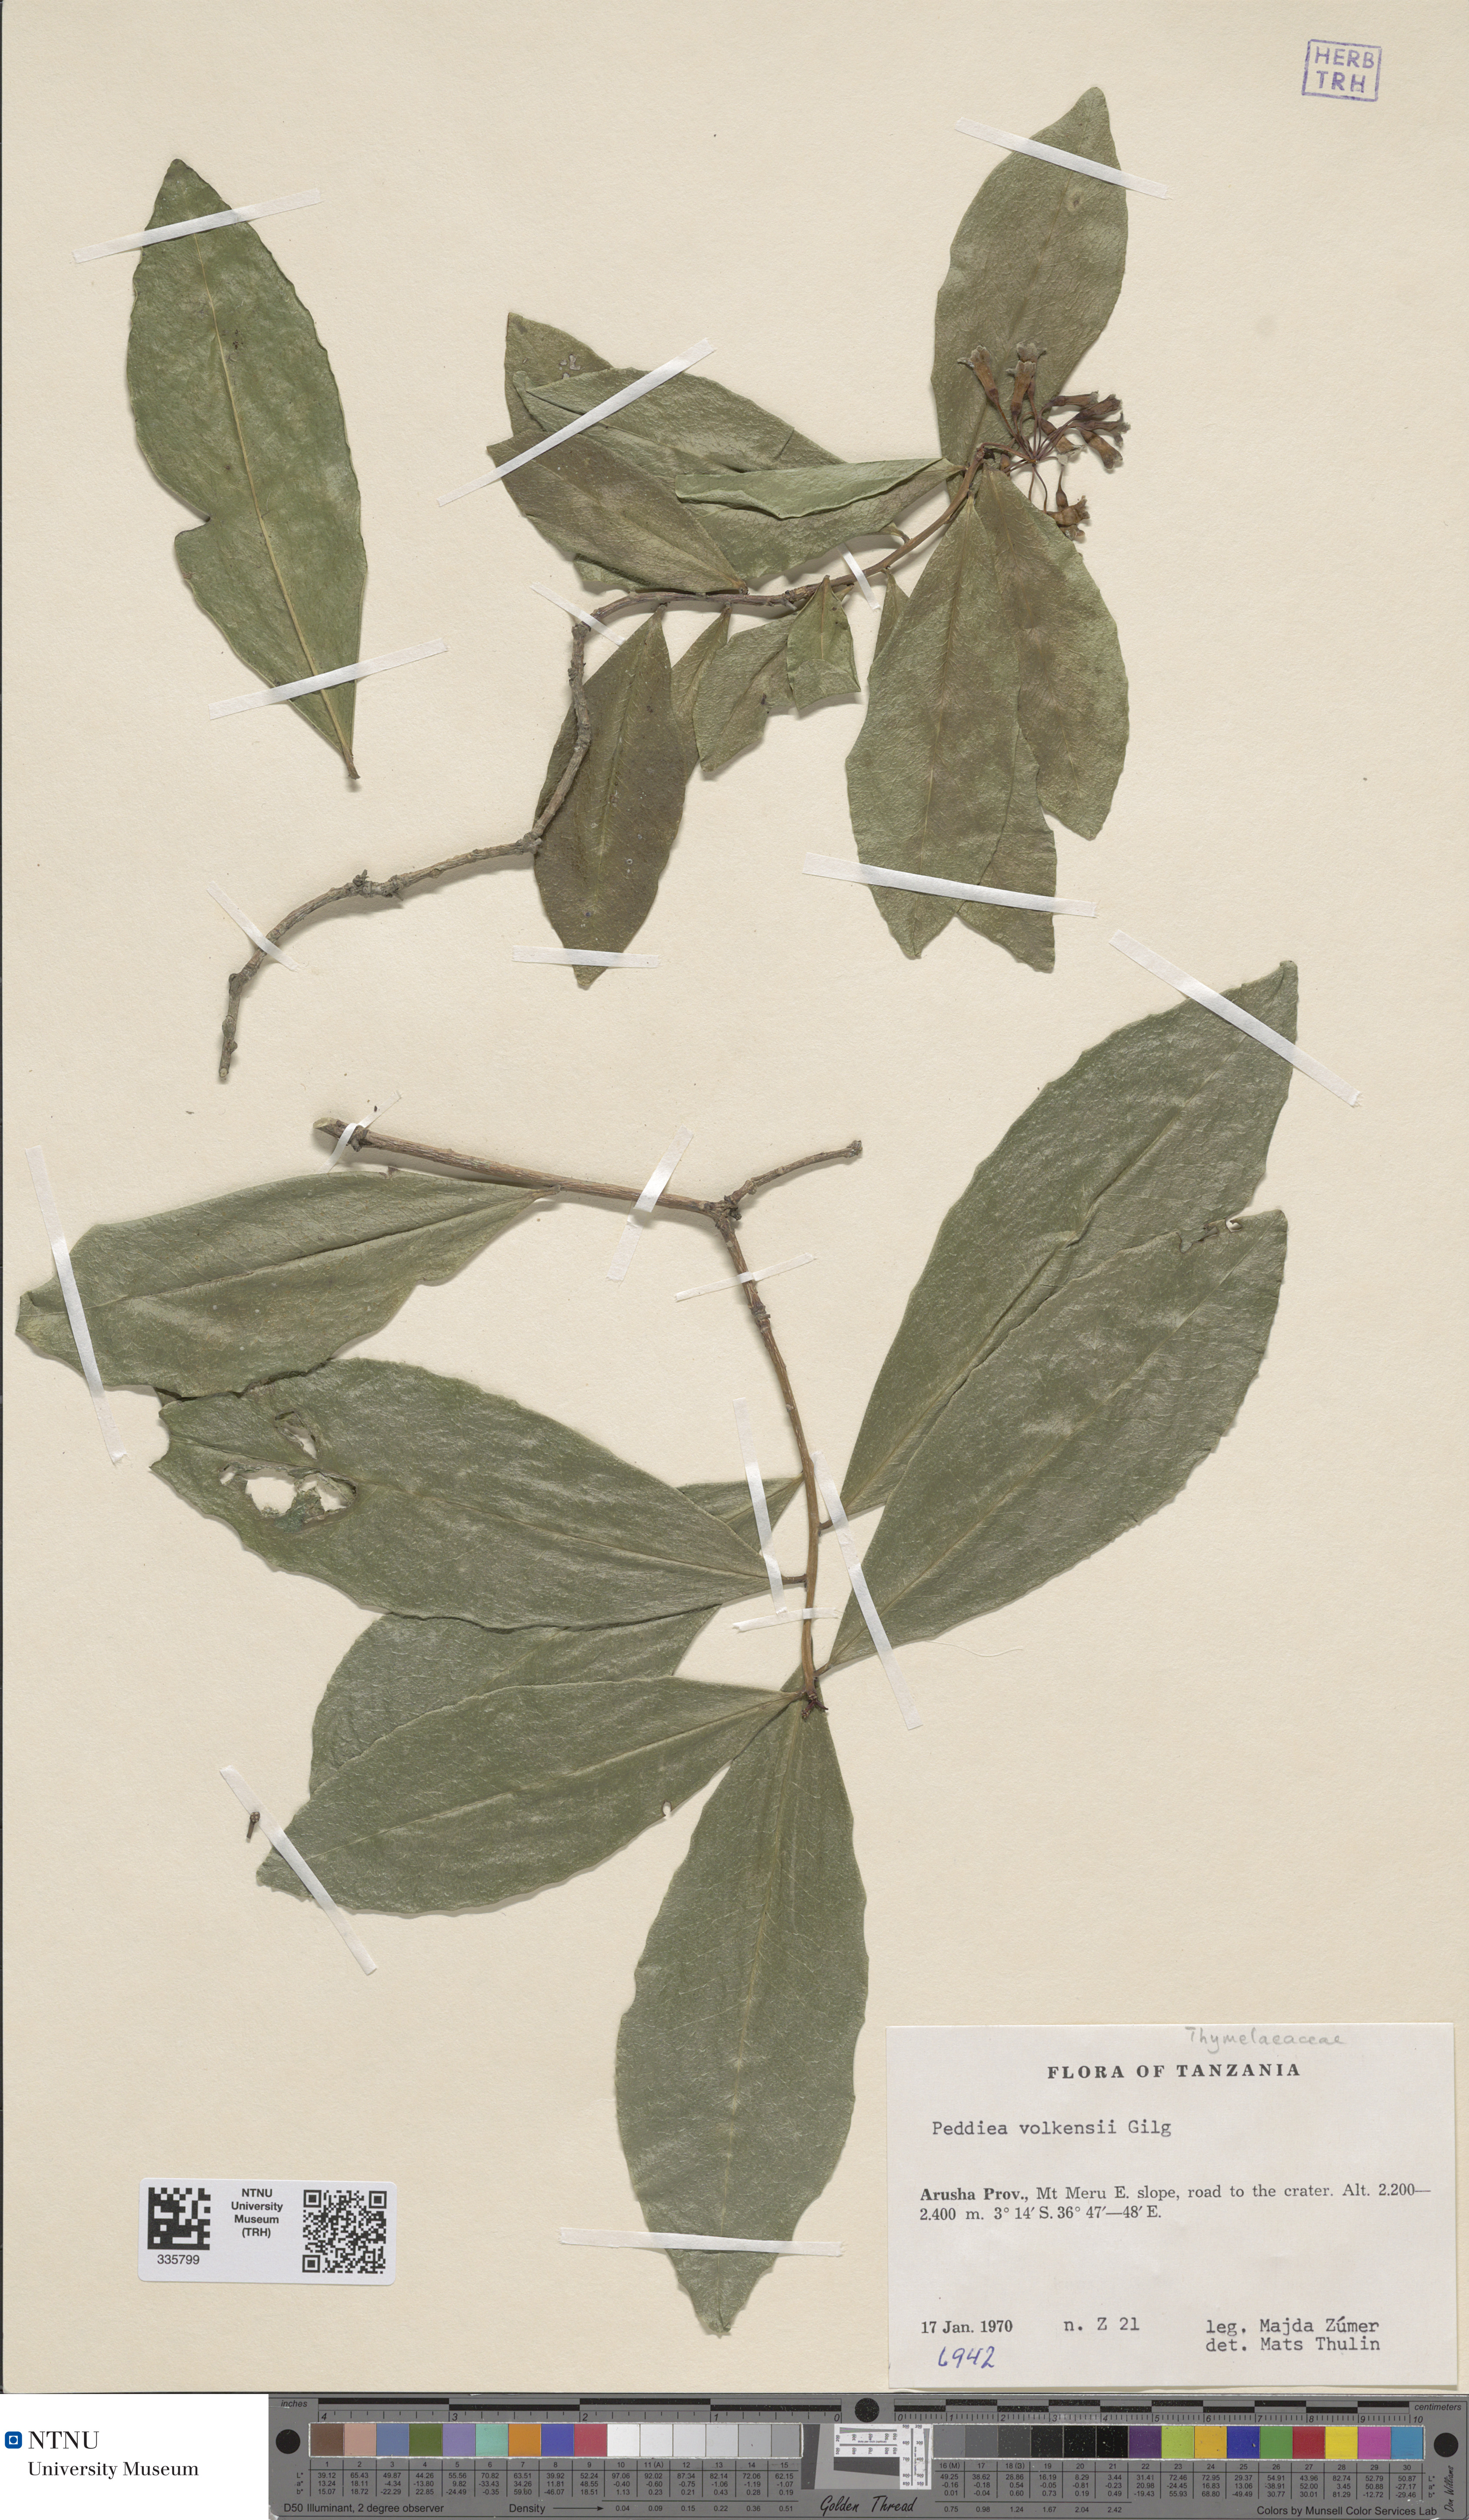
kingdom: Plantae
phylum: Tracheophyta
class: Magnoliopsida
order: Malvales
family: Thymelaeaceae
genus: Peddiea
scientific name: Peddiea africana
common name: Poison olive
